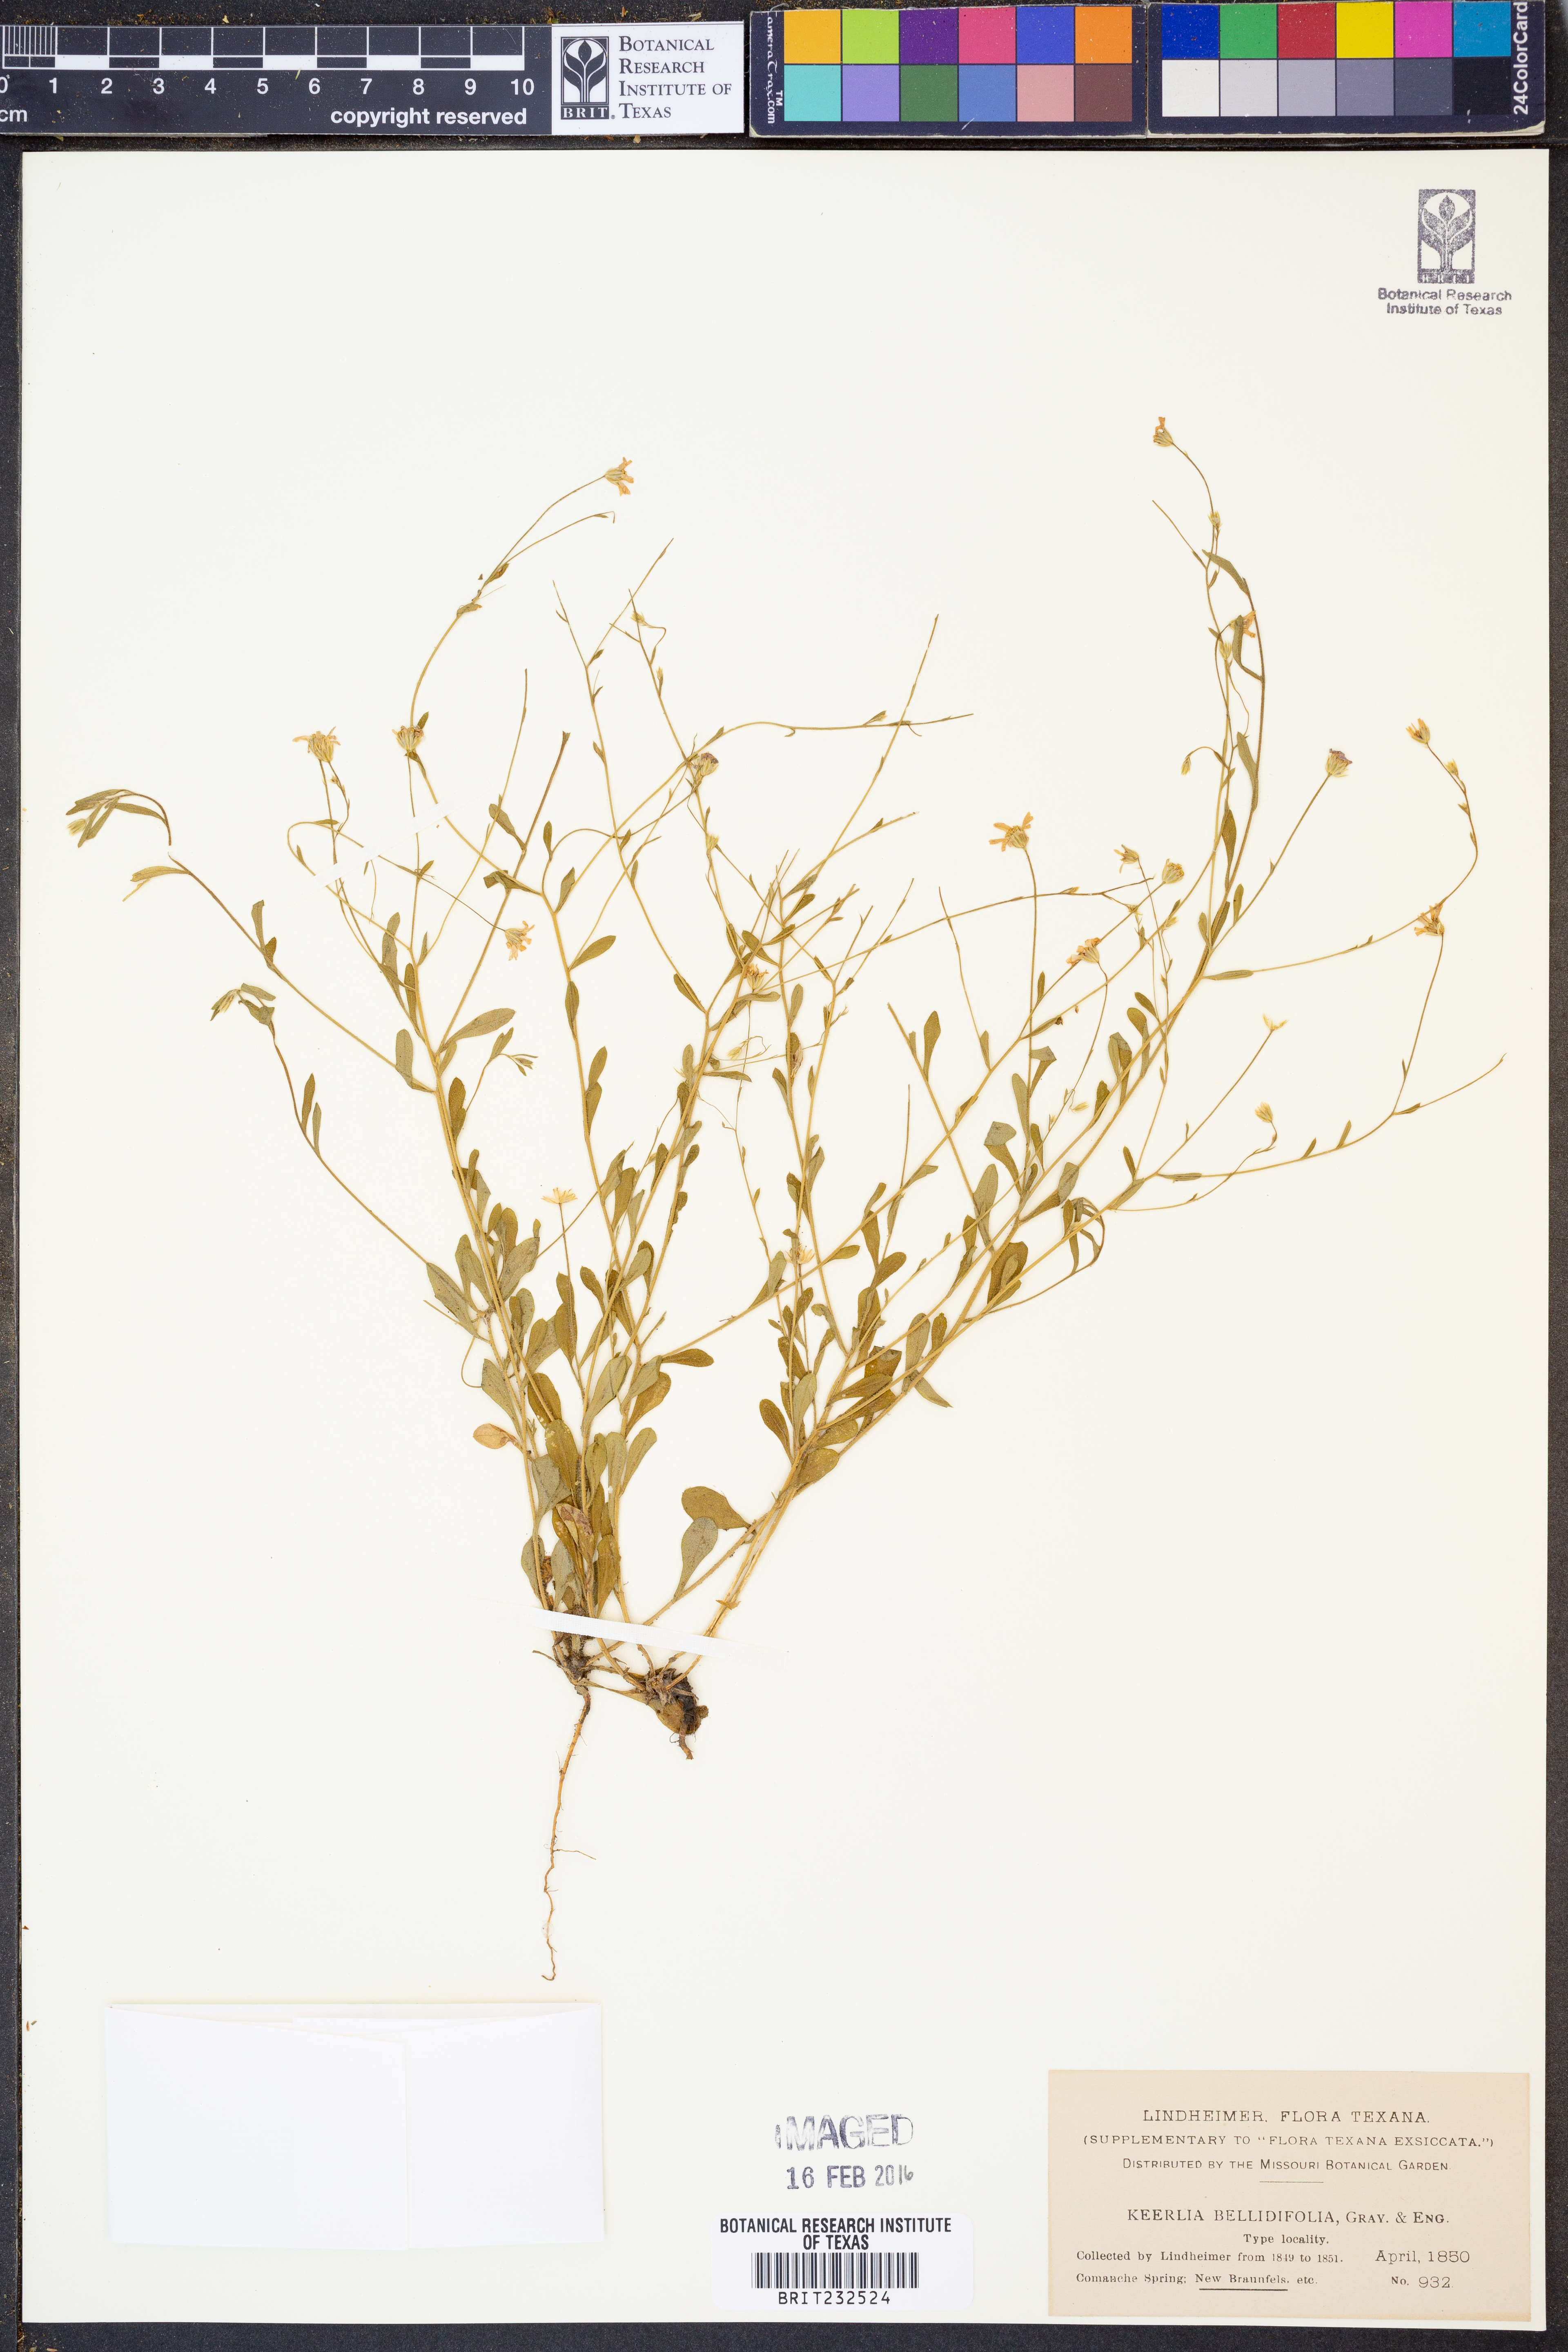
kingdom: Plantae
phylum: Tracheophyta
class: Magnoliopsida
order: Asterales
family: Asteraceae
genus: Chaetopappa
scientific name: Chaetopappa bellidifolia
